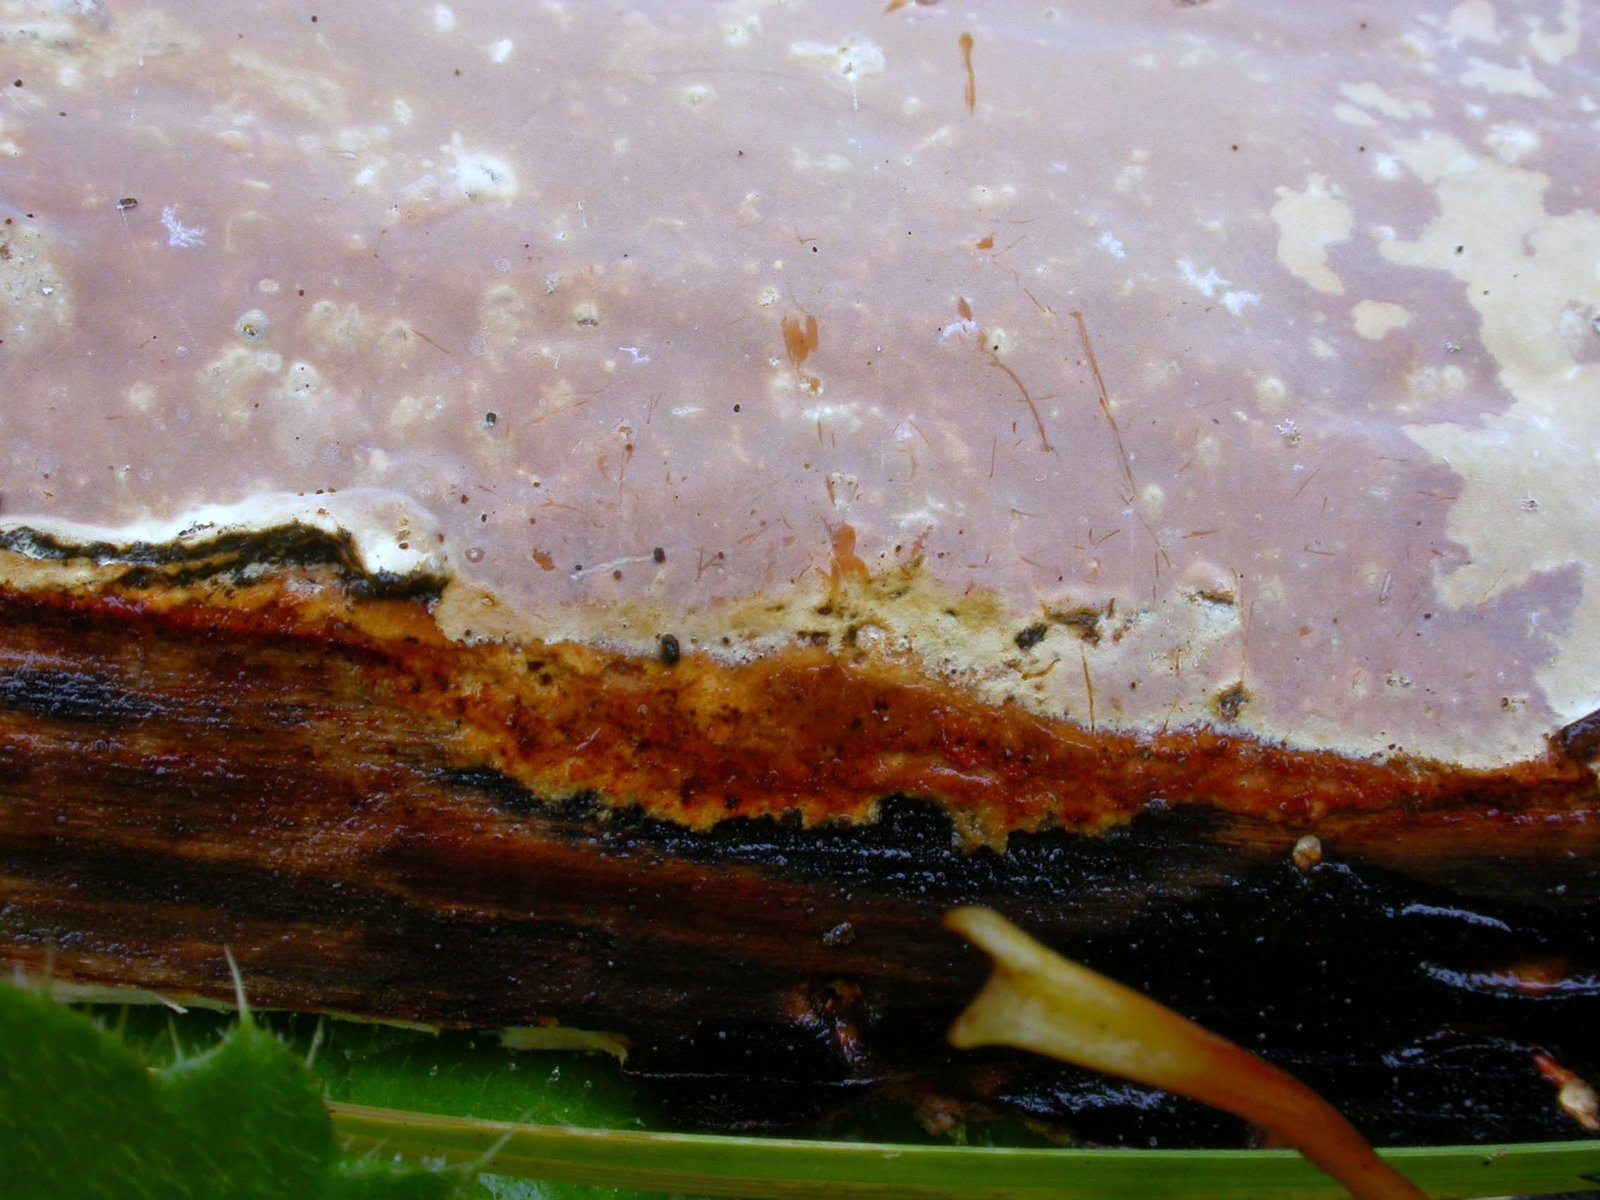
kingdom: Fungi
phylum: Basidiomycota
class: Agaricomycetes
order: Russulales
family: Peniophoraceae
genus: Scytinostroma
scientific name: Scytinostroma hemidichophyticum
